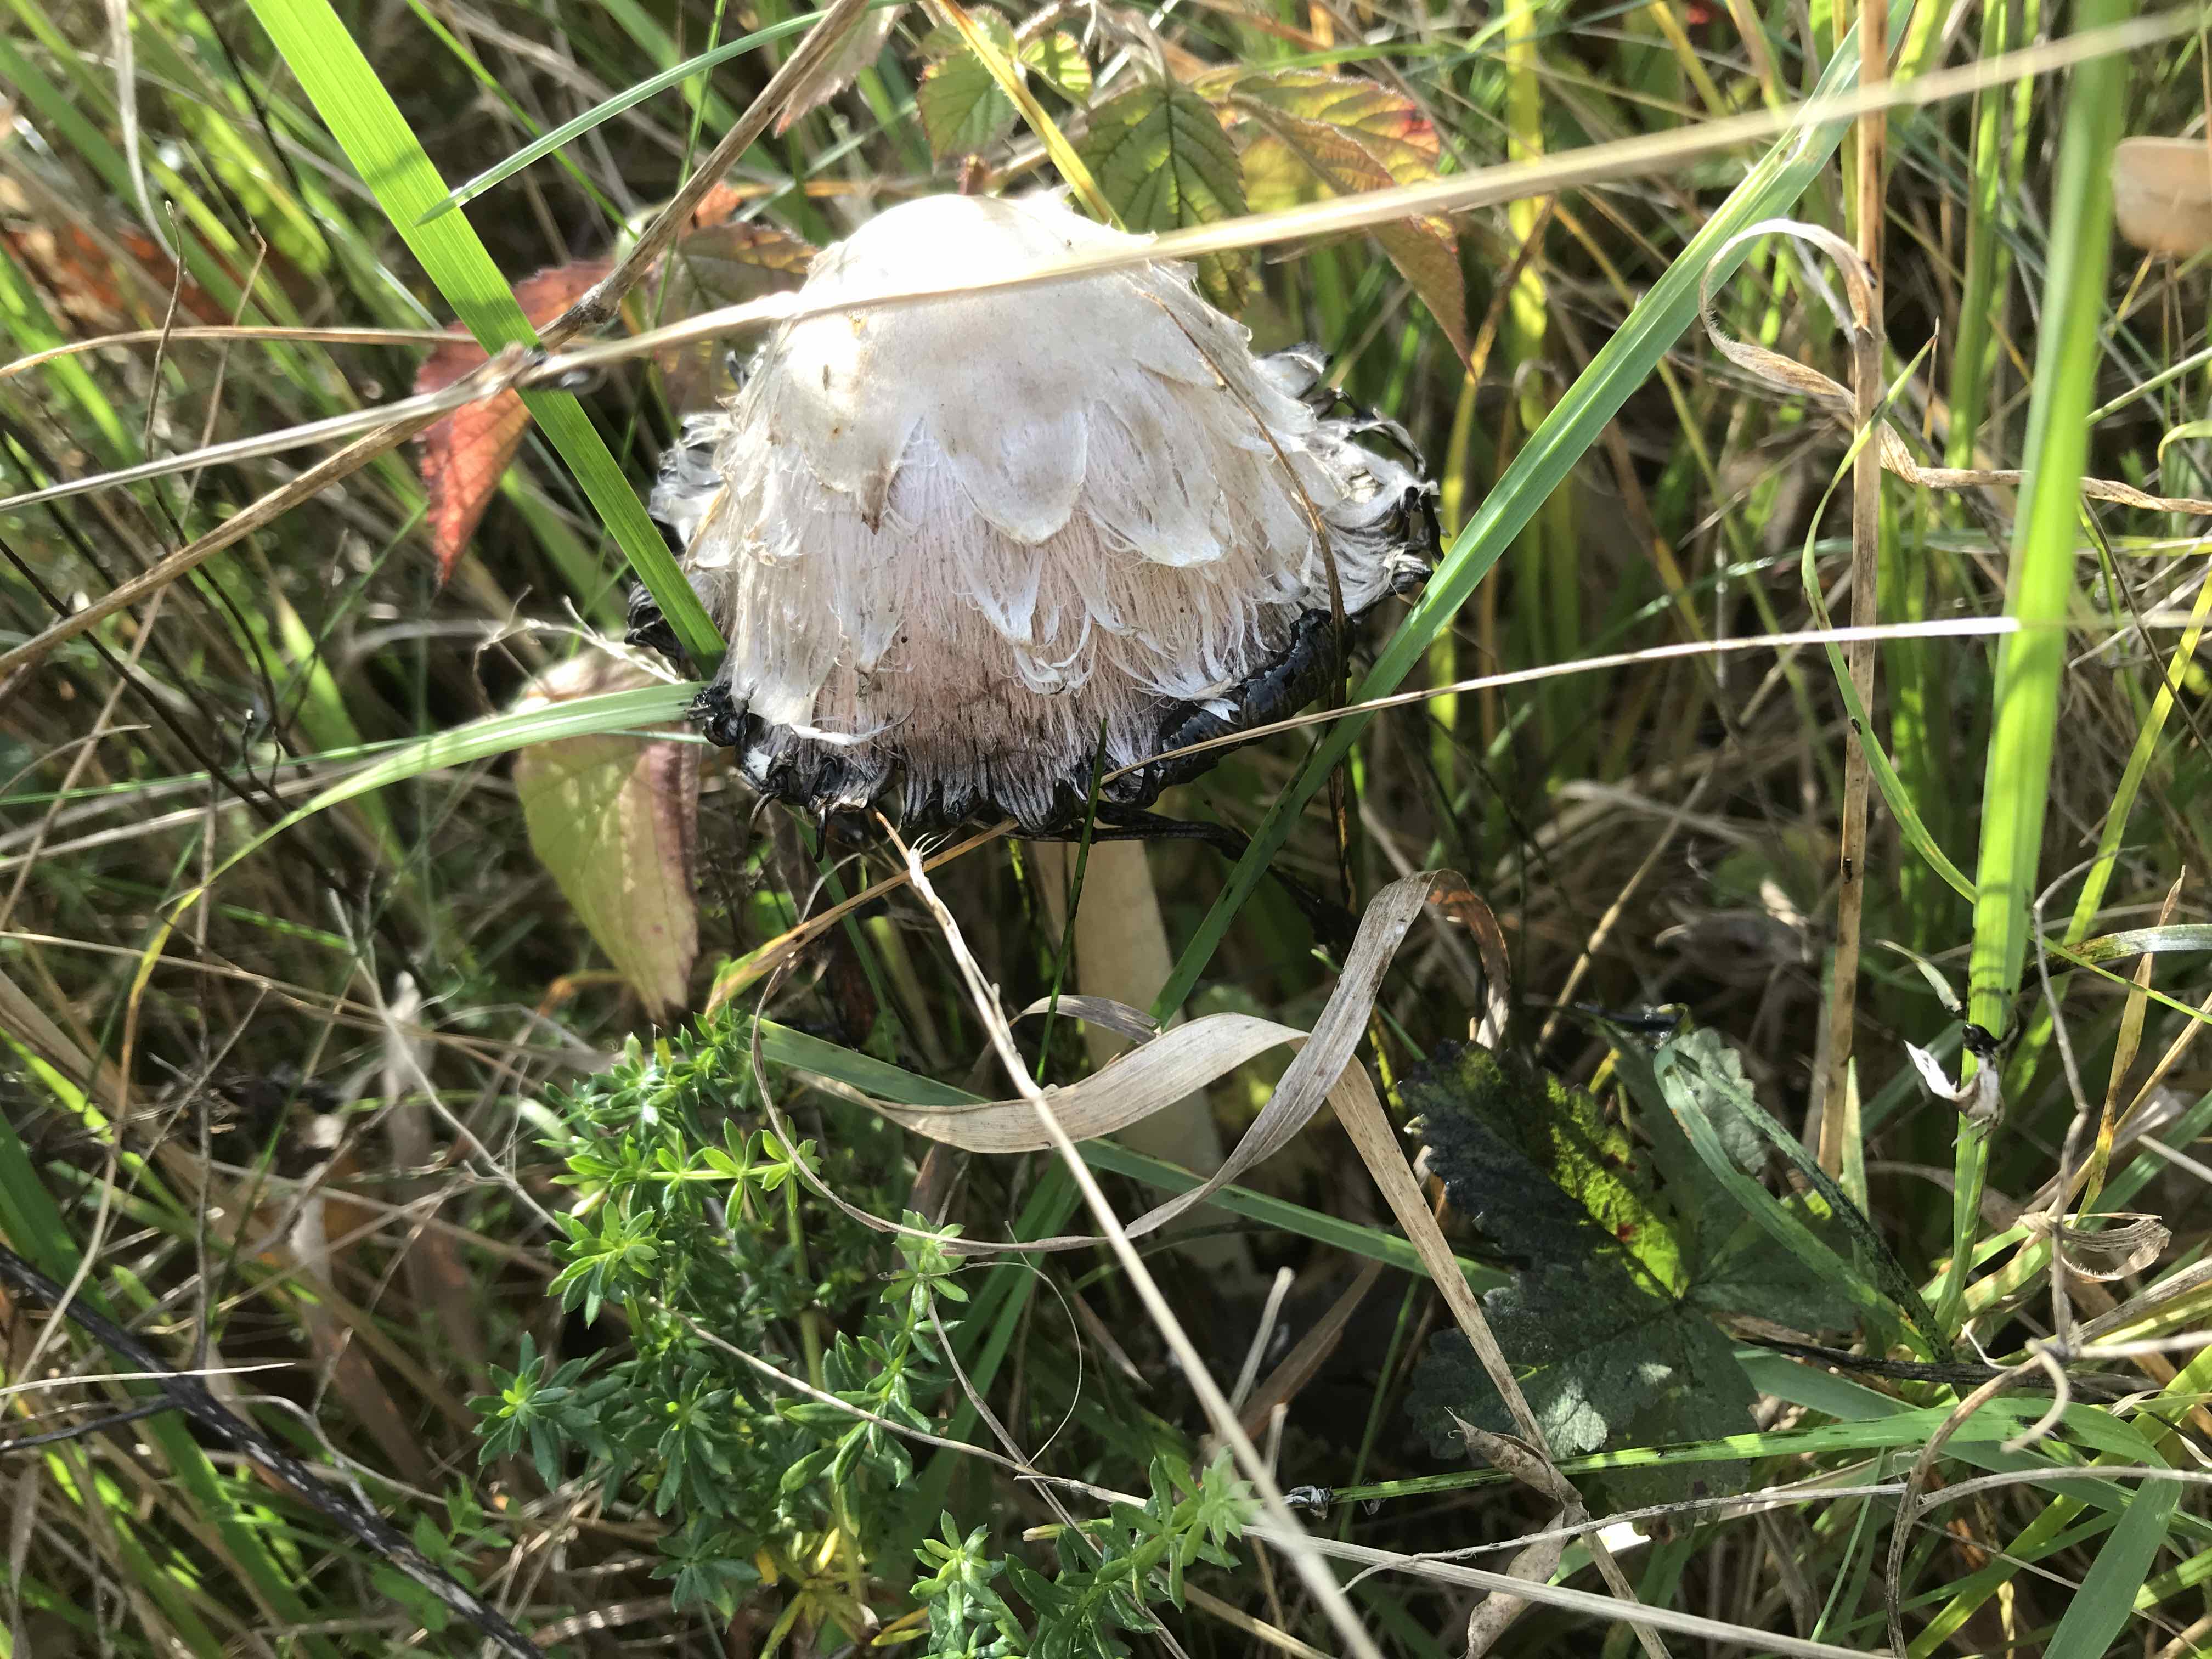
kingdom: Fungi
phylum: Basidiomycota
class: Agaricomycetes
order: Agaricales
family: Agaricaceae
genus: Coprinus
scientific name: Coprinus comatus
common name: stor parykhat
